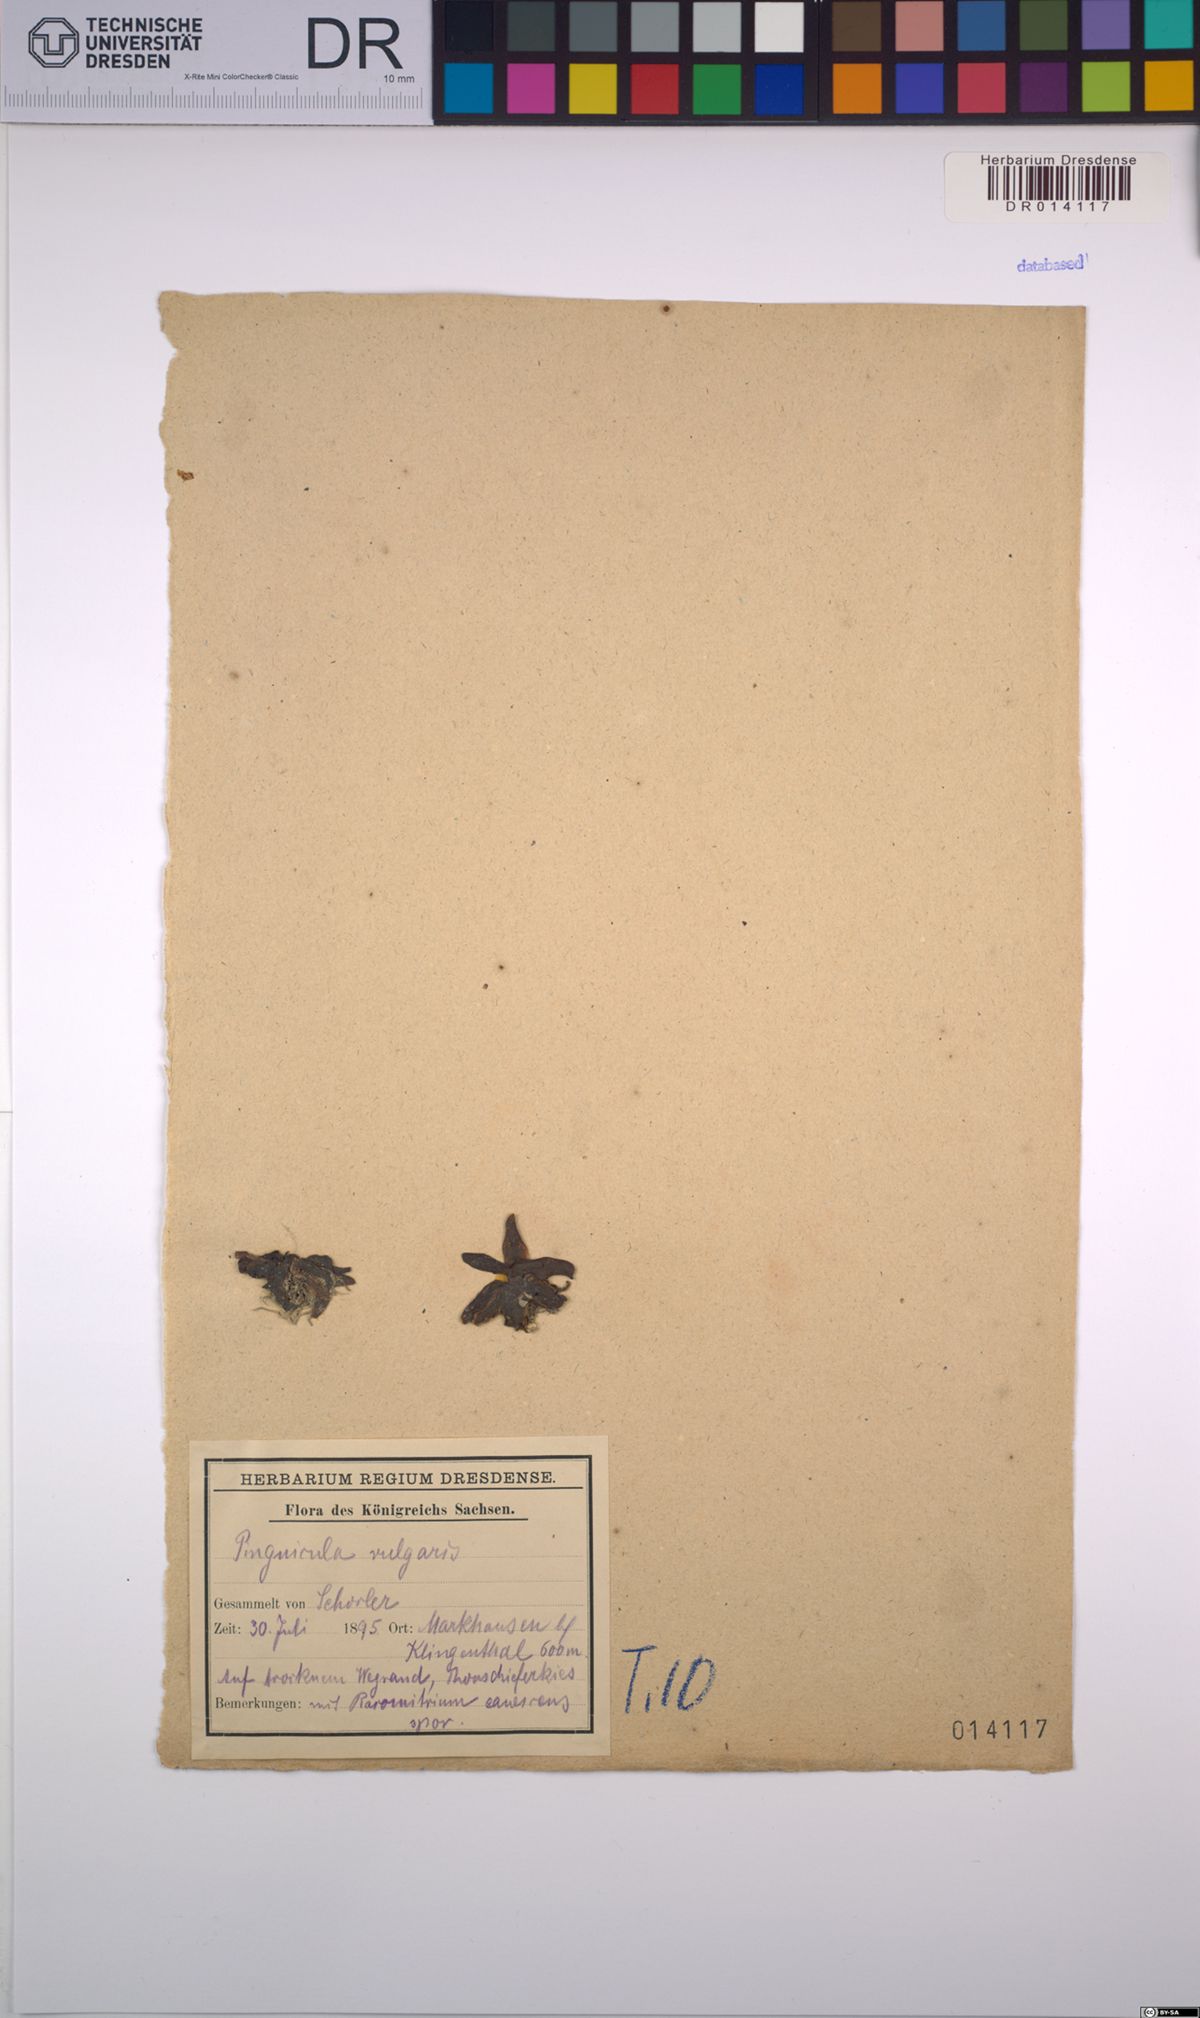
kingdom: Plantae
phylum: Tracheophyta
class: Magnoliopsida
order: Lamiales
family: Lentibulariaceae
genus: Pinguicula
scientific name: Pinguicula vulgaris
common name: Common butterwort
